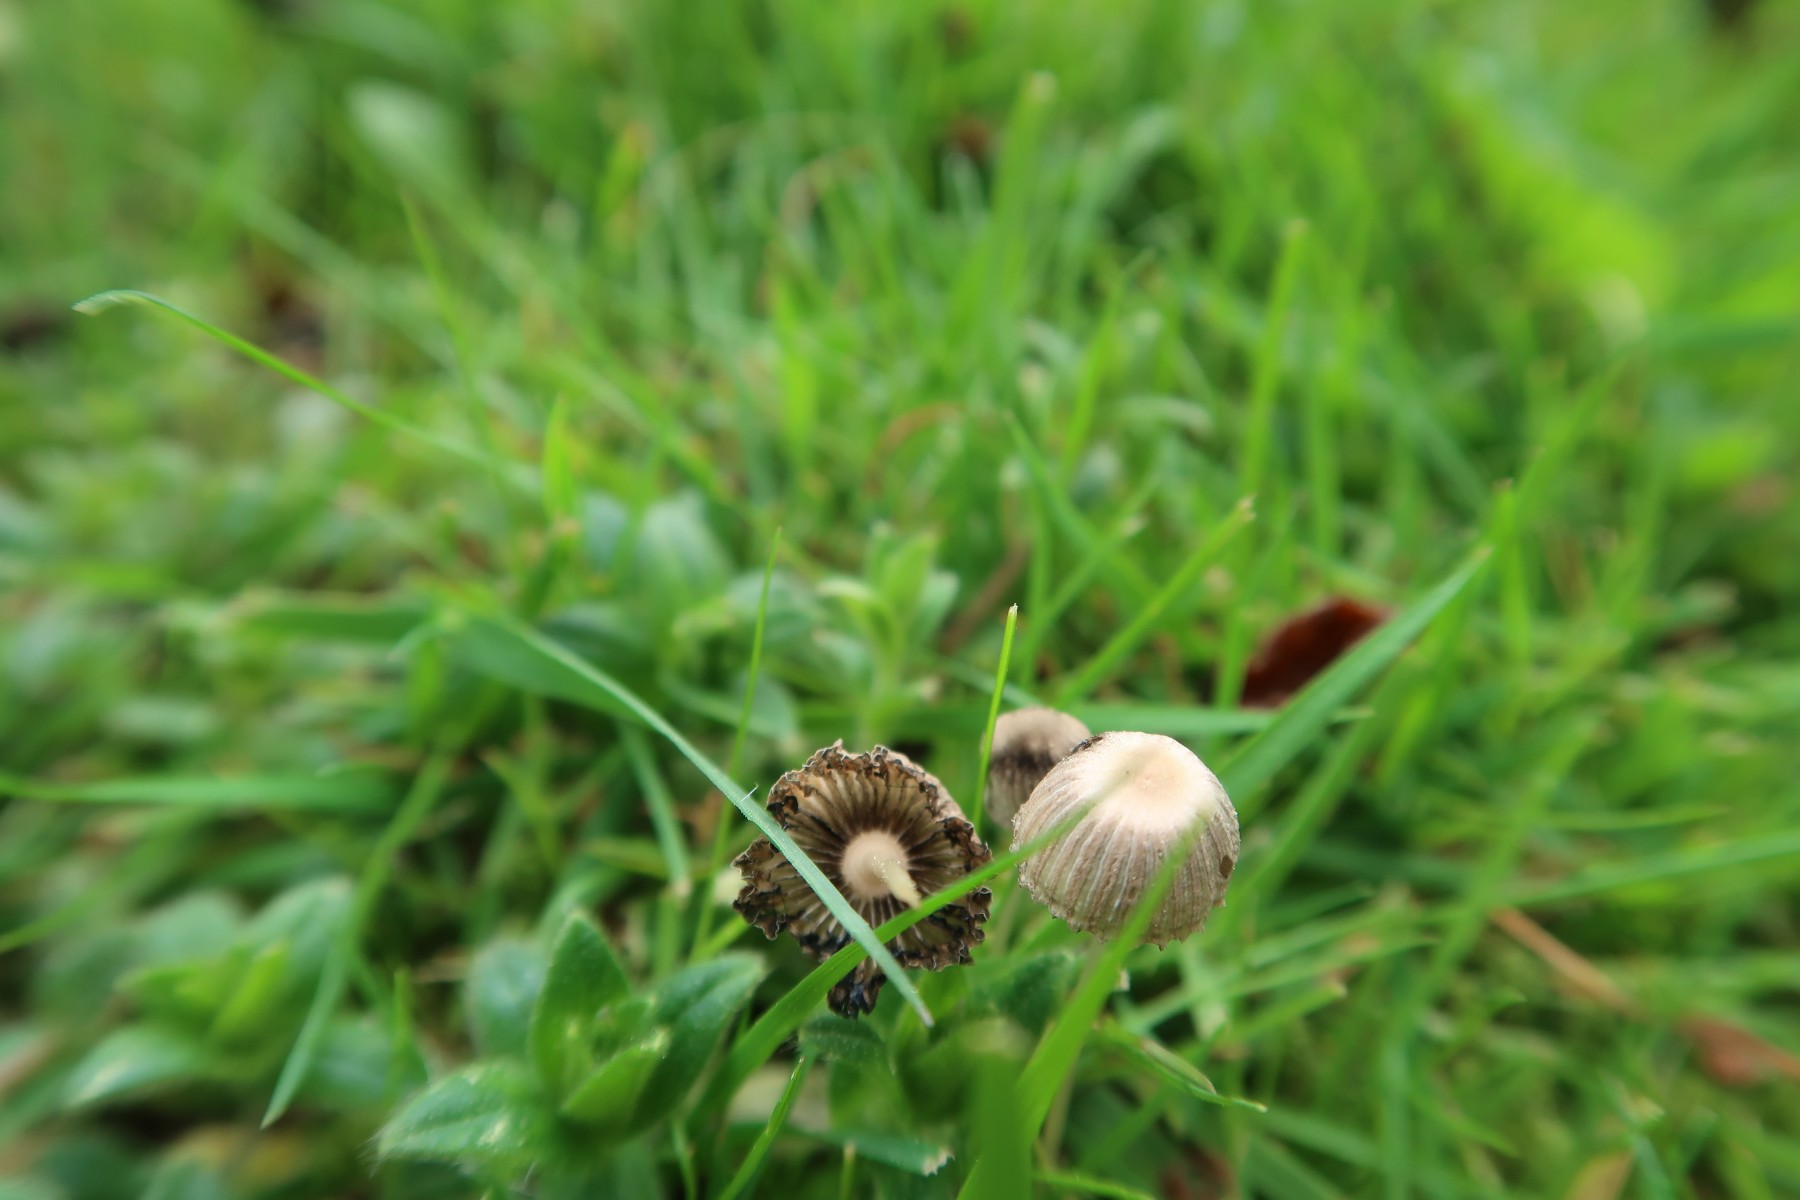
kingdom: Fungi
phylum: Basidiomycota
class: Agaricomycetes
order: Agaricales
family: Psathyrellaceae
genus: Parasola
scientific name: Parasola schroeteri
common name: bredsporet hjulhat
